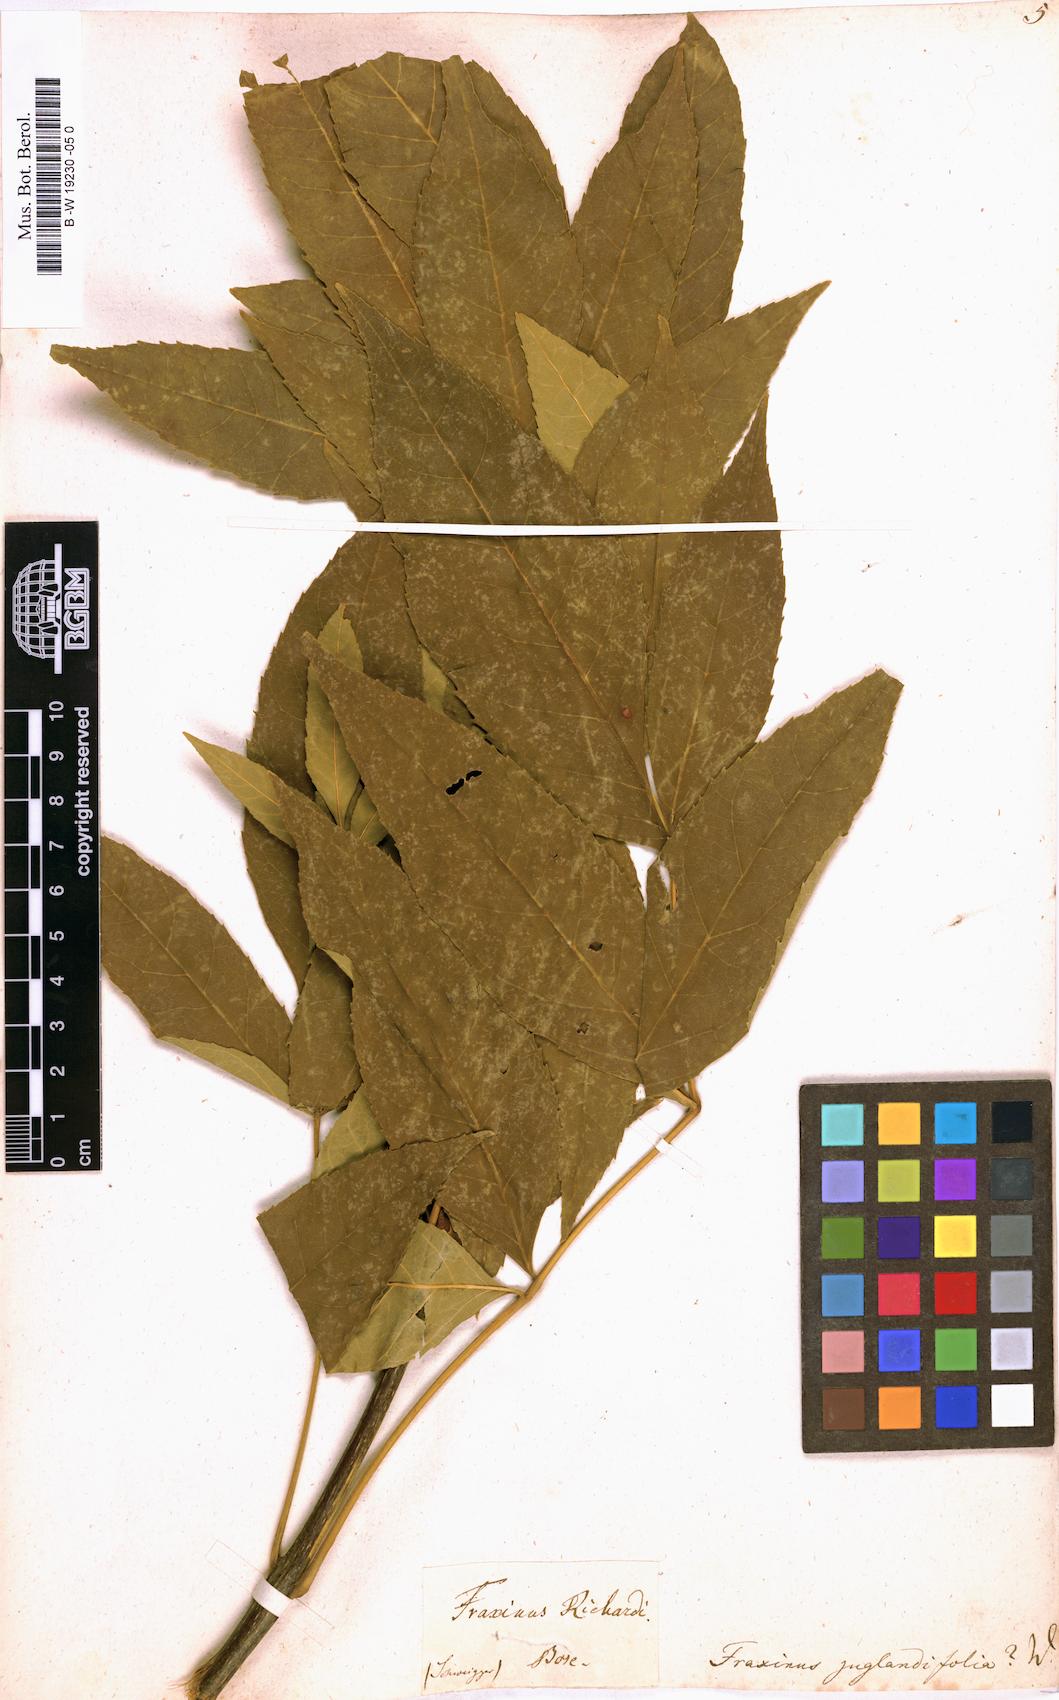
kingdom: Plantae
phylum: Tracheophyta
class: Magnoliopsida
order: Lamiales
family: Oleaceae
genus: Fraxinus
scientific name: Fraxinus americana
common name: White ash
